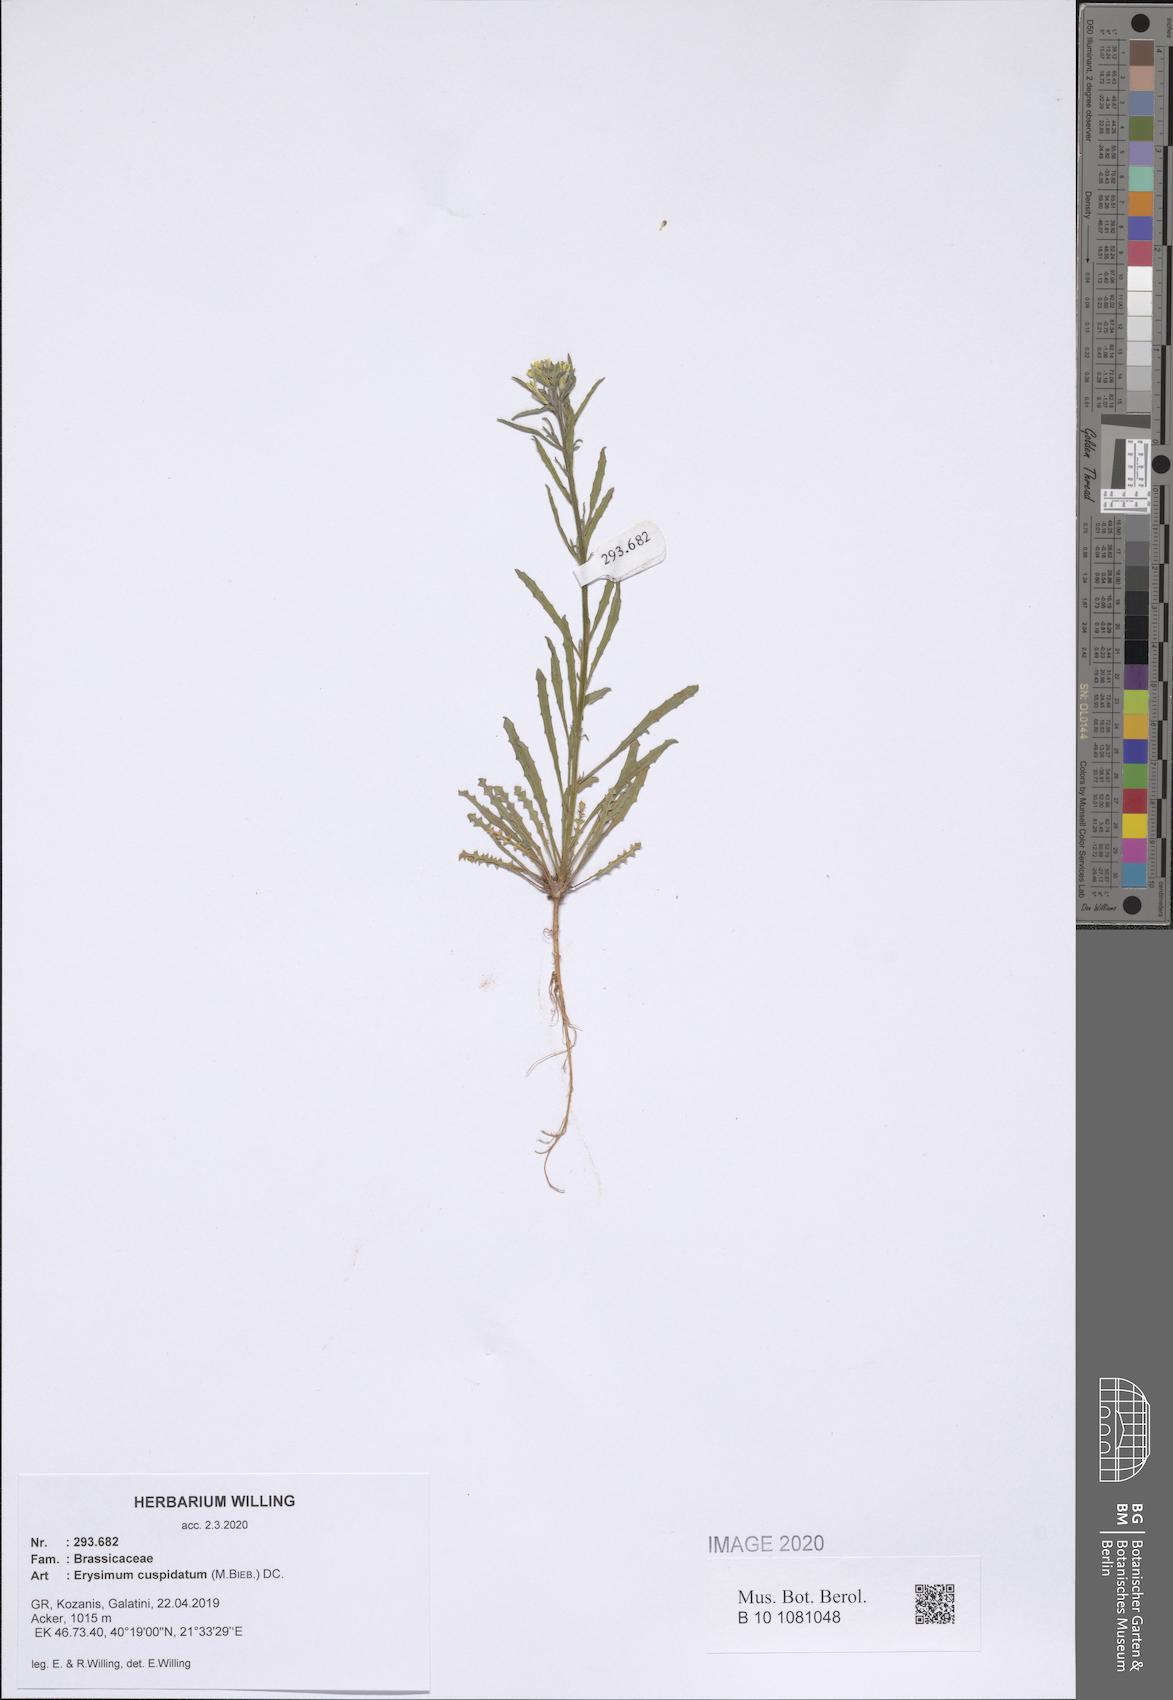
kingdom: Plantae
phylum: Tracheophyta
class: Magnoliopsida
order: Brassicales
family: Brassicaceae
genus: Erysimum
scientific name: Erysimum cuspidatum
